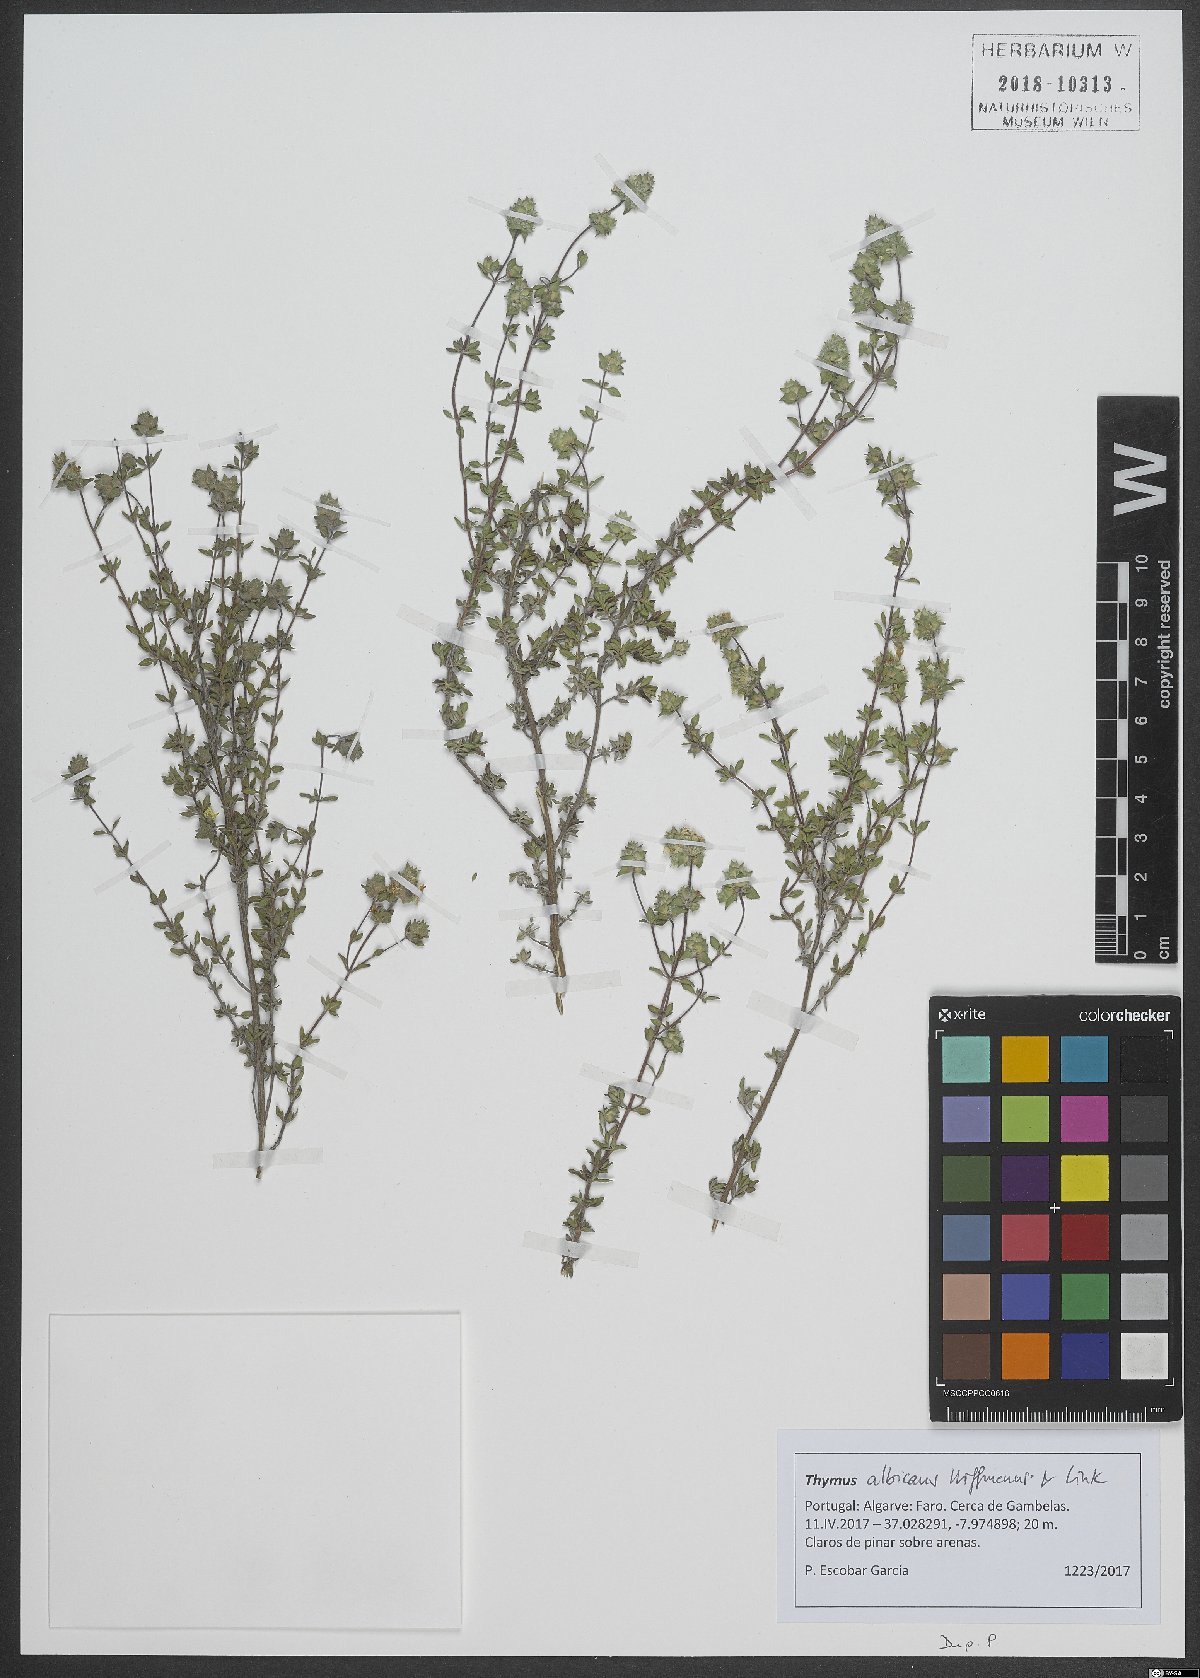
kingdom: Plantae
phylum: Tracheophyta
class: Magnoliopsida
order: Lamiales
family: Lamiaceae
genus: Thymus
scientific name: Thymus albicans
